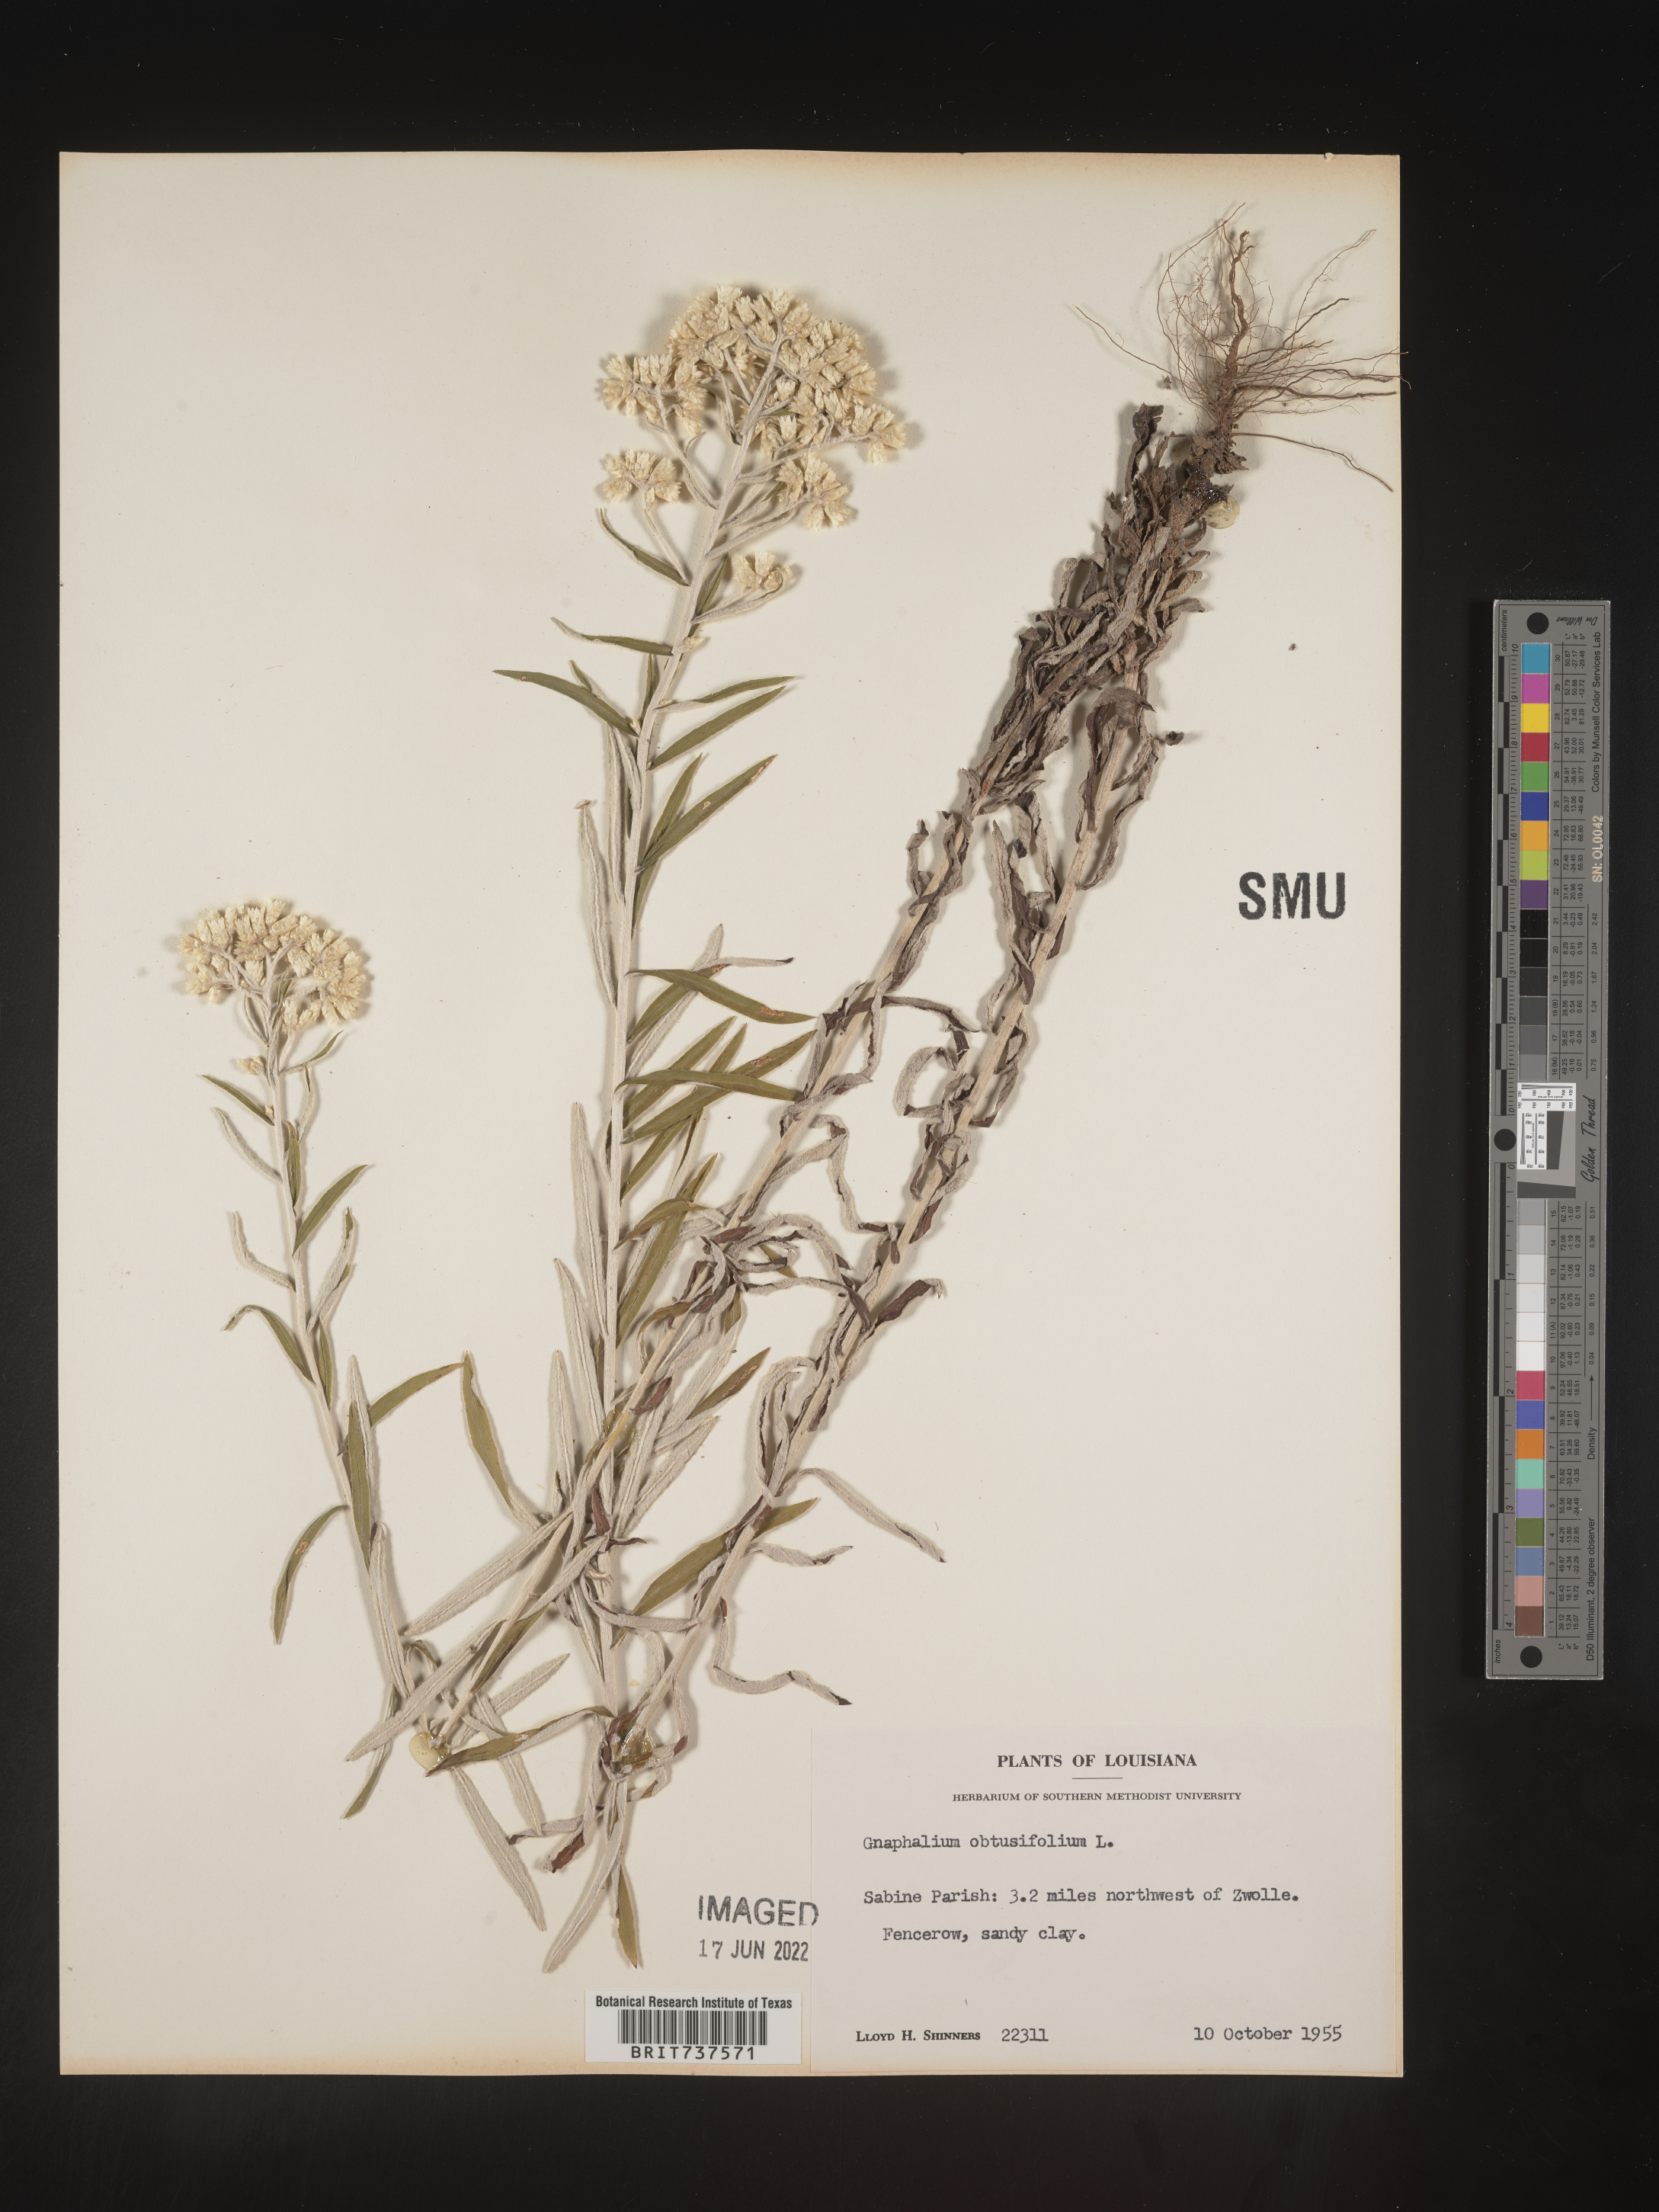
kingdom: Plantae
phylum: Tracheophyta
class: Magnoliopsida
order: Asterales
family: Asteraceae
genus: Pseudognaphalium
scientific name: Pseudognaphalium obtusifolium
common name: Eastern rabbit-tobacco
